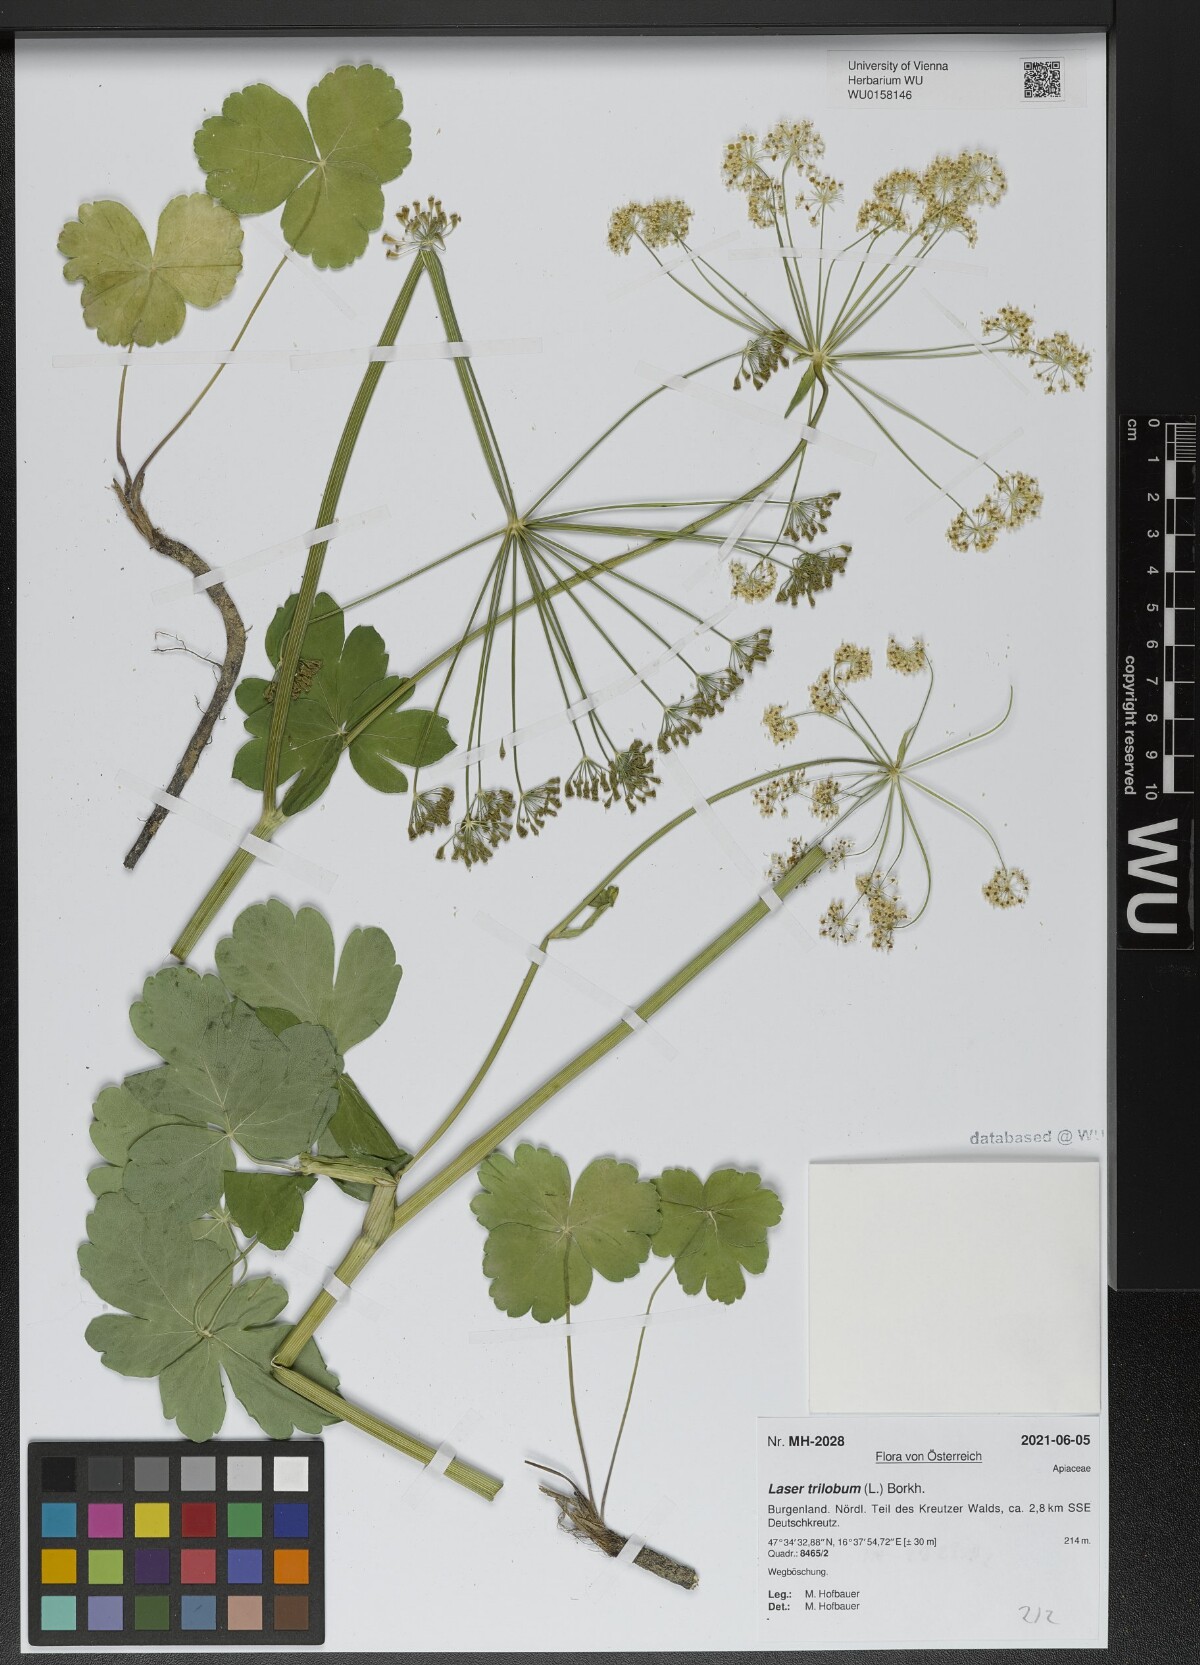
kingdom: Plantae
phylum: Tracheophyta
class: Magnoliopsida
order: Apiales
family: Apiaceae
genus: Laser
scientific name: Laser trilobum
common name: Laser
